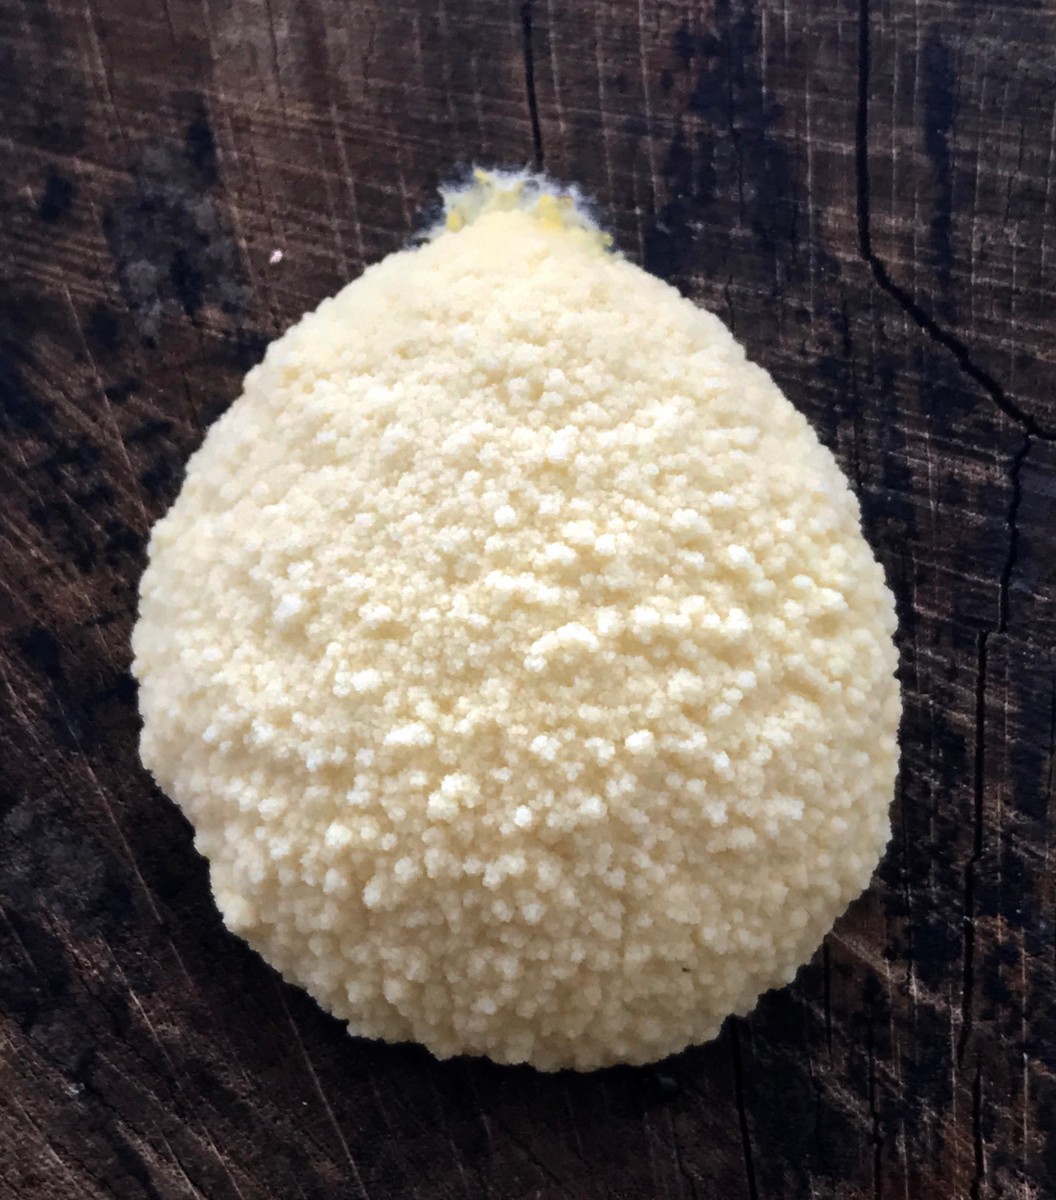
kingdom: Protozoa
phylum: Mycetozoa
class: Myxomycetes
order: Cribrariales
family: Tubiferaceae
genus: Reticularia
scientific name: Reticularia lycoperdon
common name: skinnende støvpude
